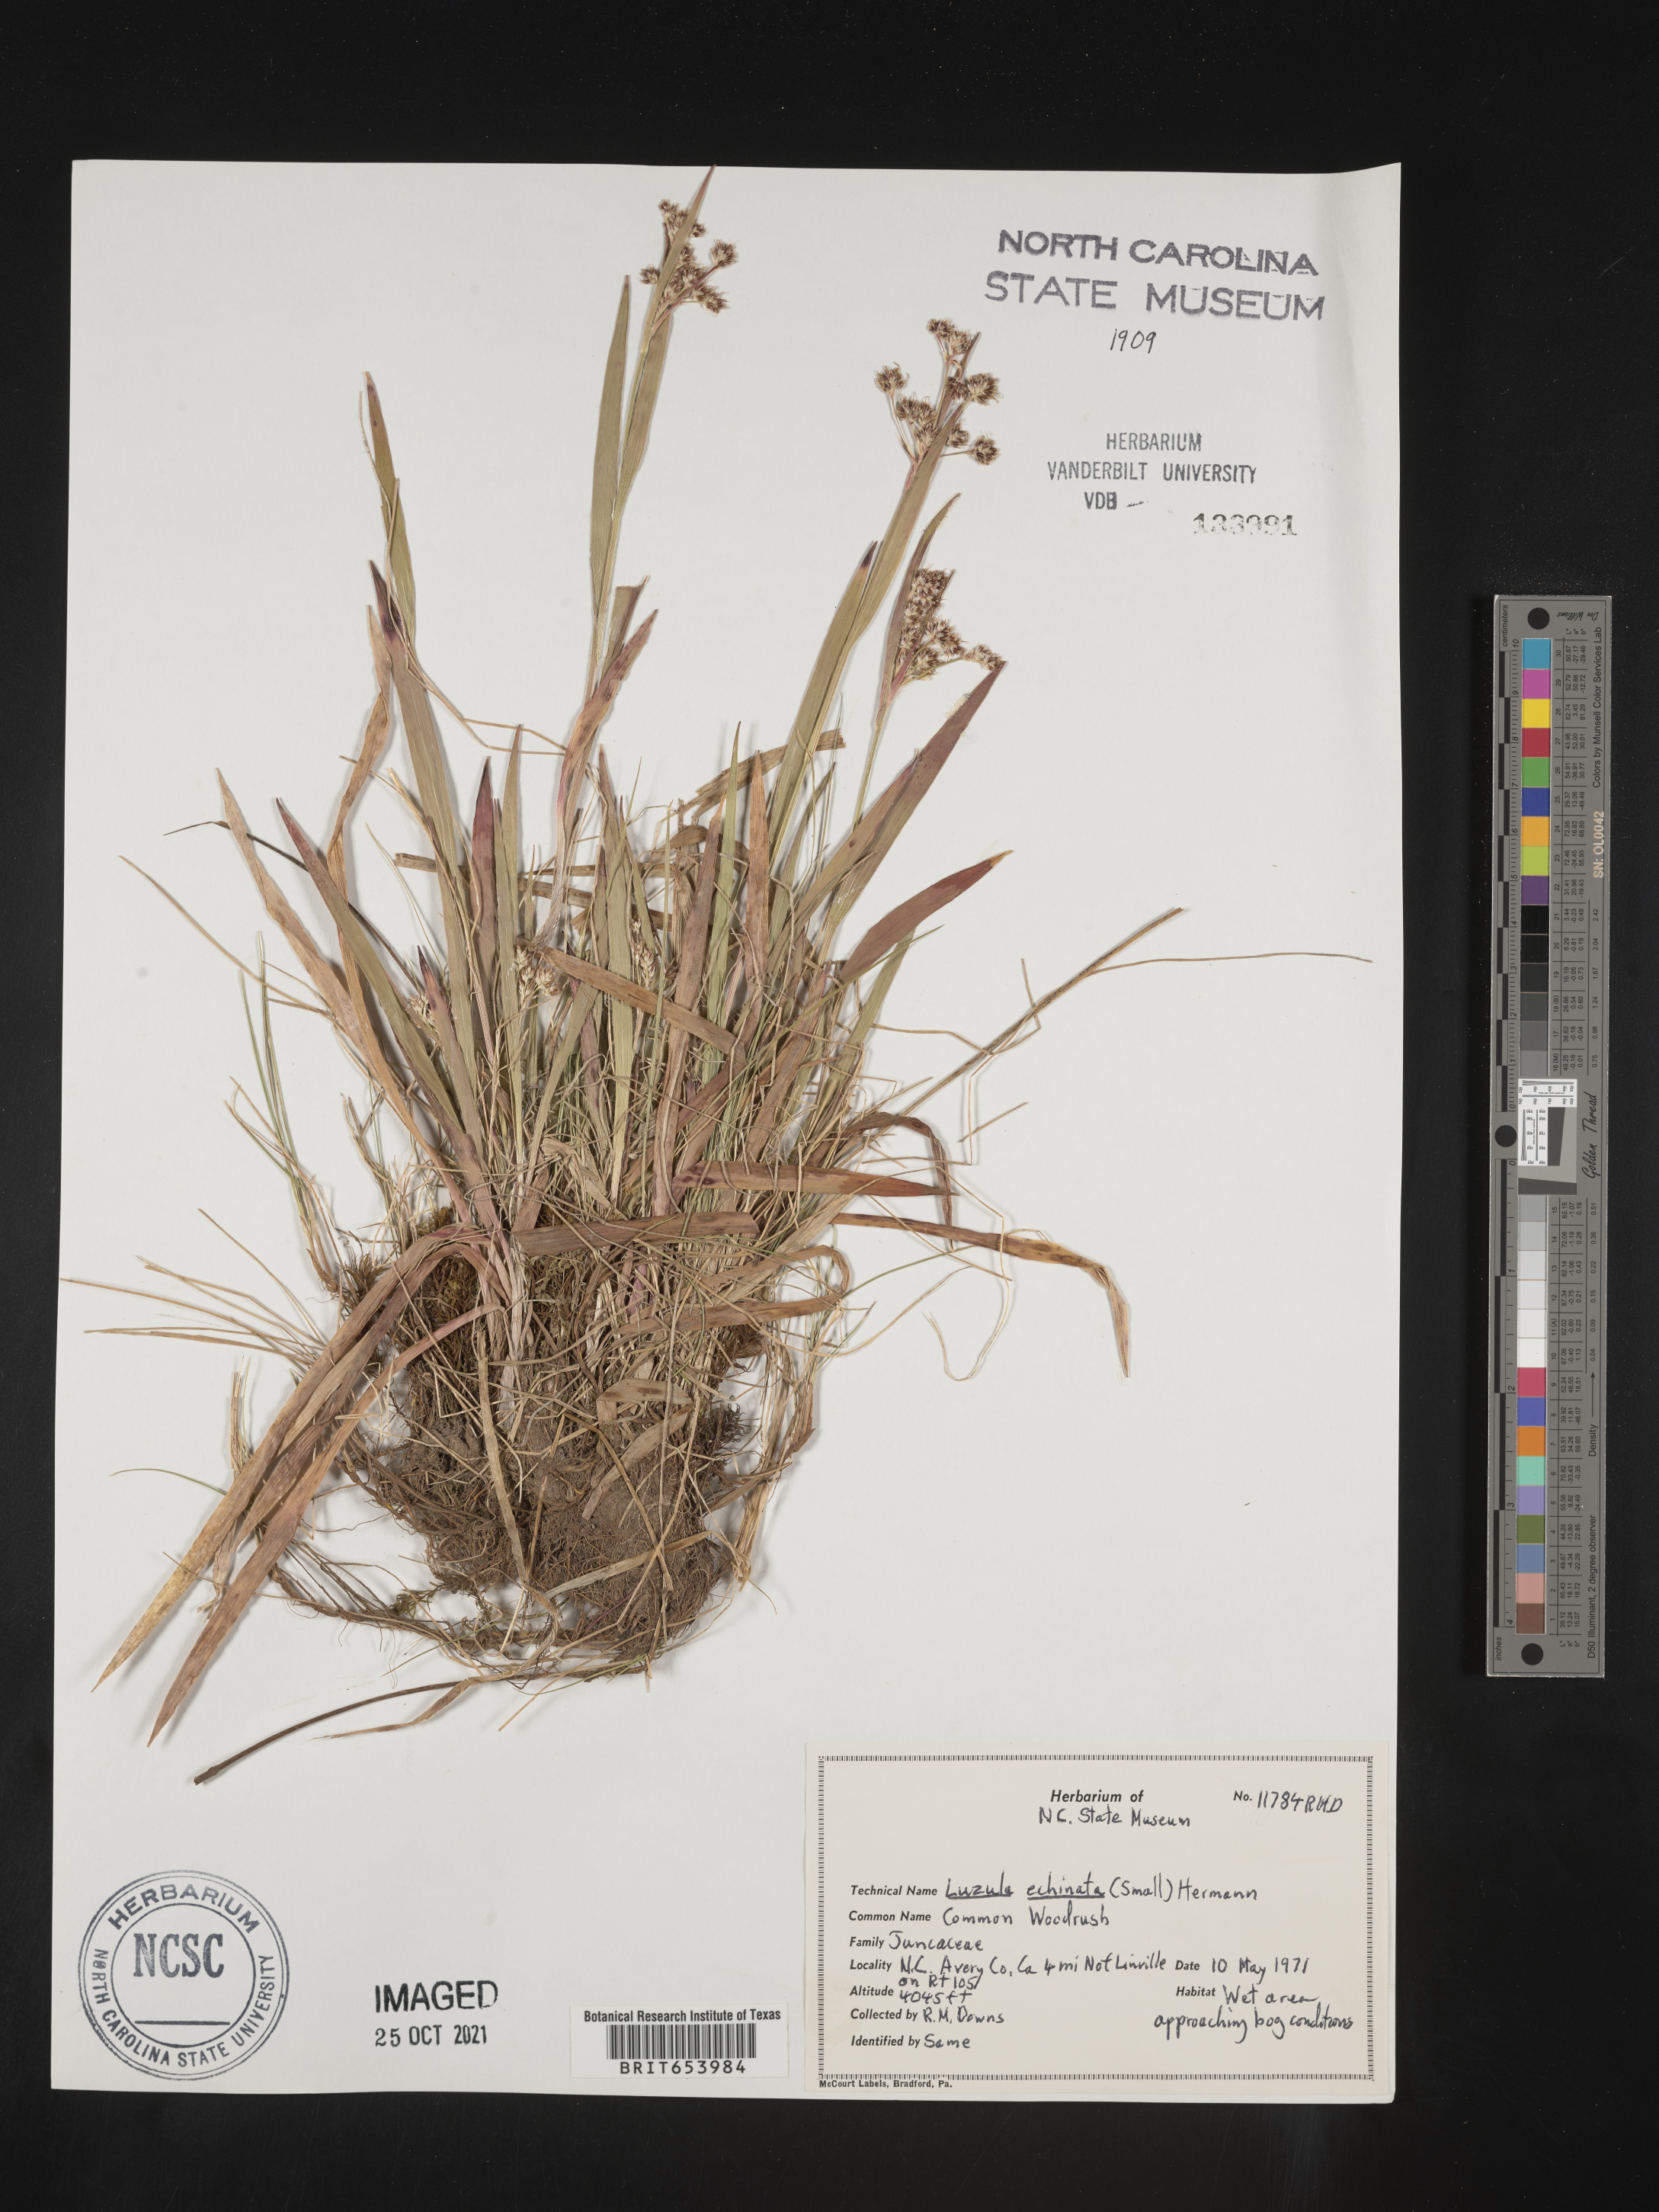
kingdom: Plantae
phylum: Tracheophyta
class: Liliopsida
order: Poales
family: Juncaceae
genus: Luzula
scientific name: Luzula echinata
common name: Hedgehog woodrush
